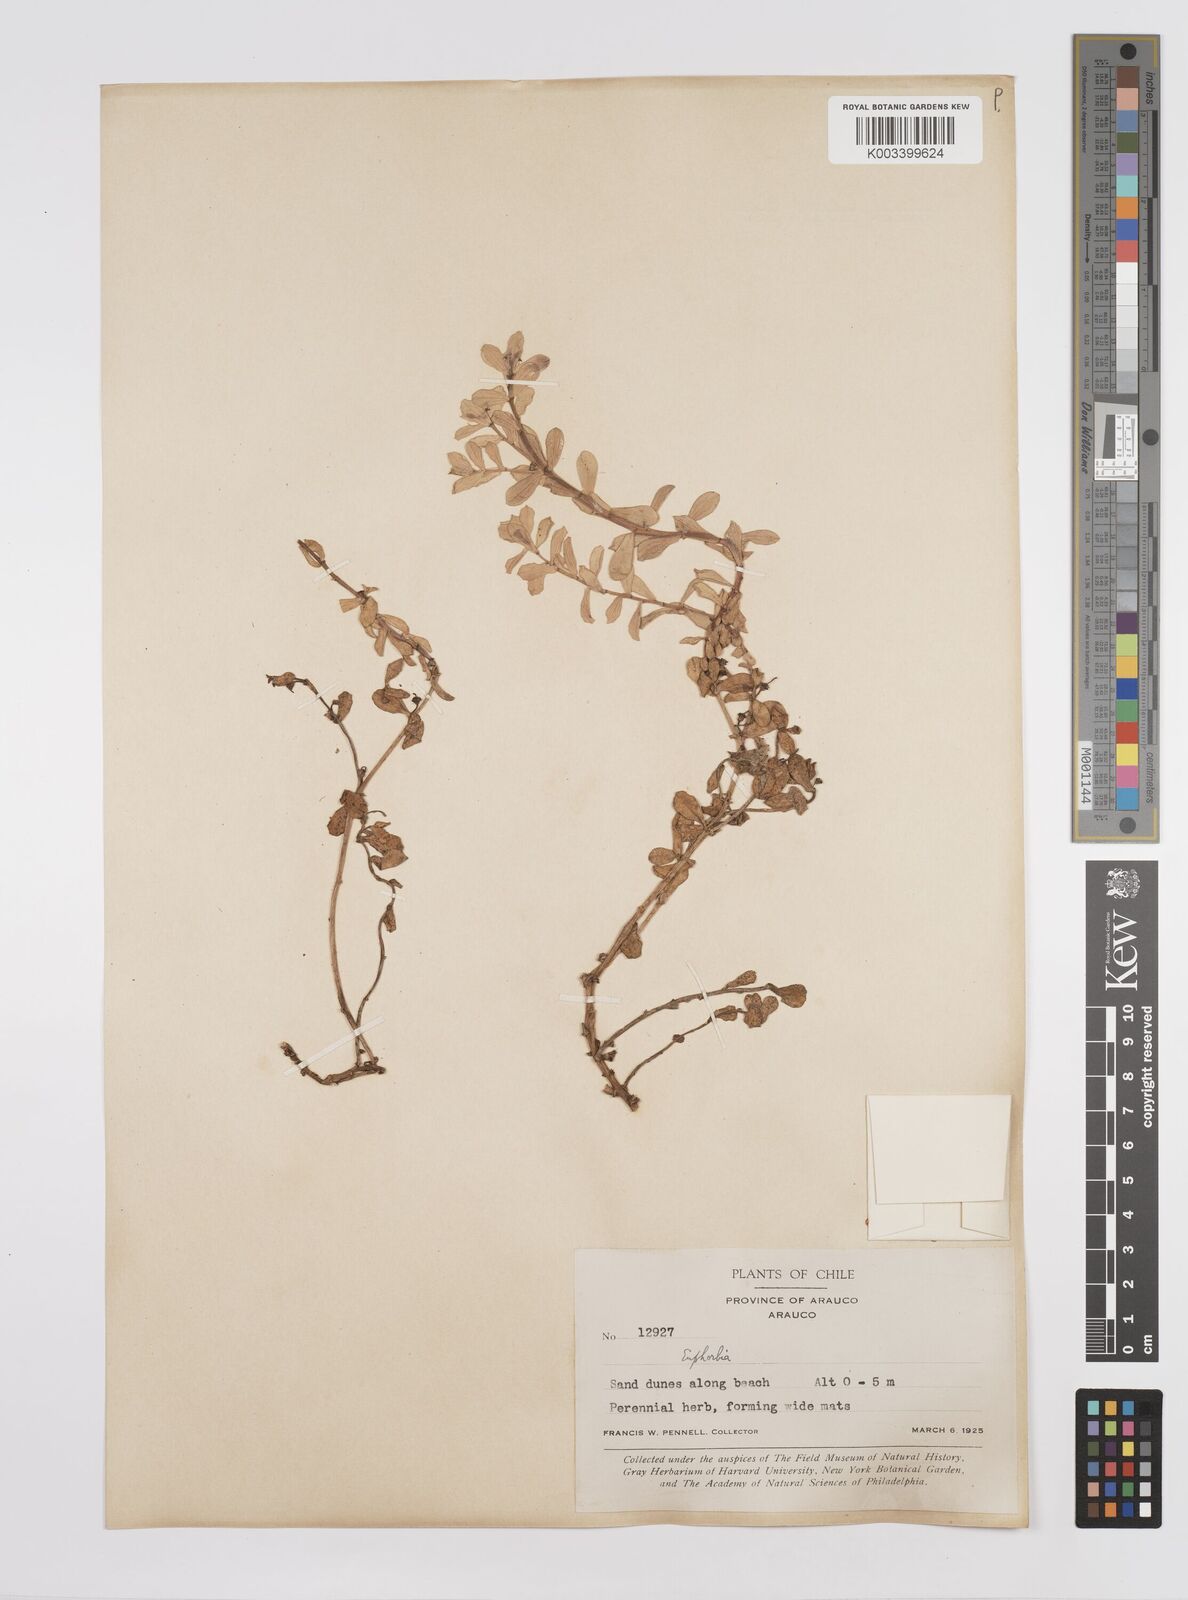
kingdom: Plantae
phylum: Tracheophyta
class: Magnoliopsida
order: Malpighiales
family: Euphorbiaceae
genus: Euphorbia
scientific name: Euphorbia portulacoides
